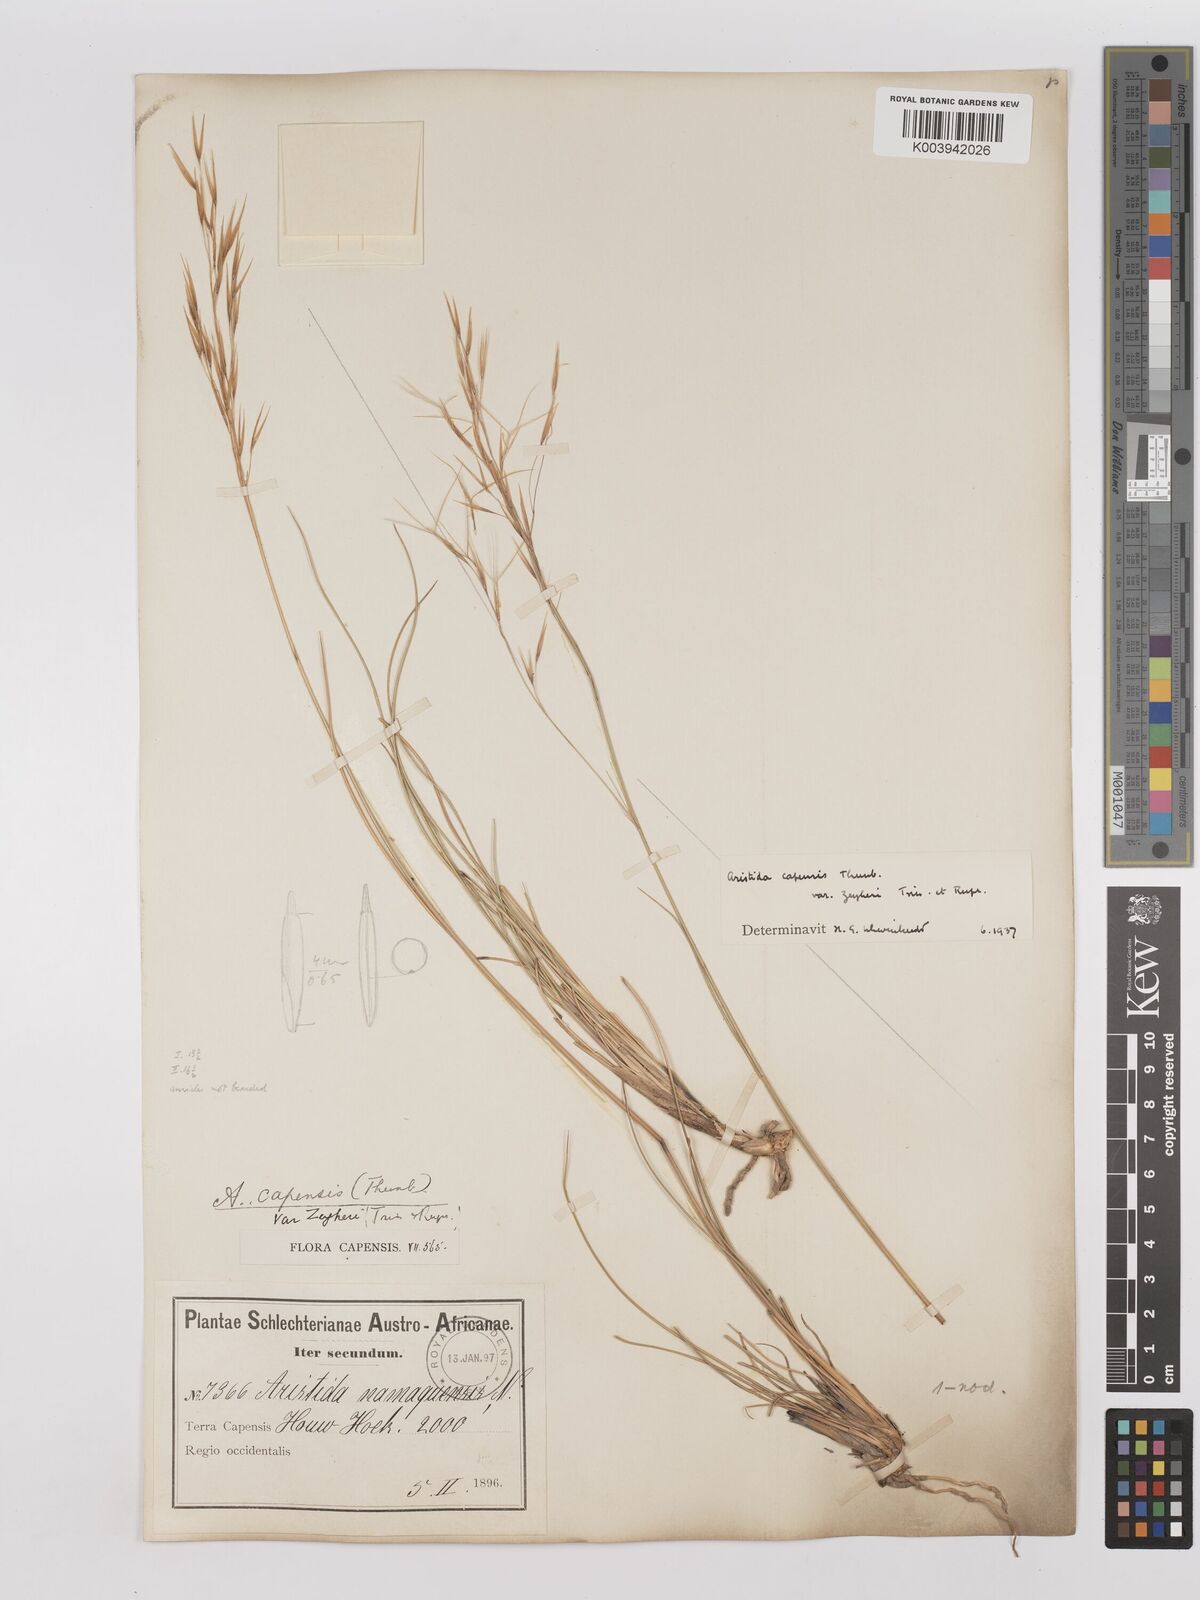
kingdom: Plantae
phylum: Tracheophyta
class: Liliopsida
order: Poales
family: Poaceae
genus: Stipagrostis
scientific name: Stipagrostis zeyheri
